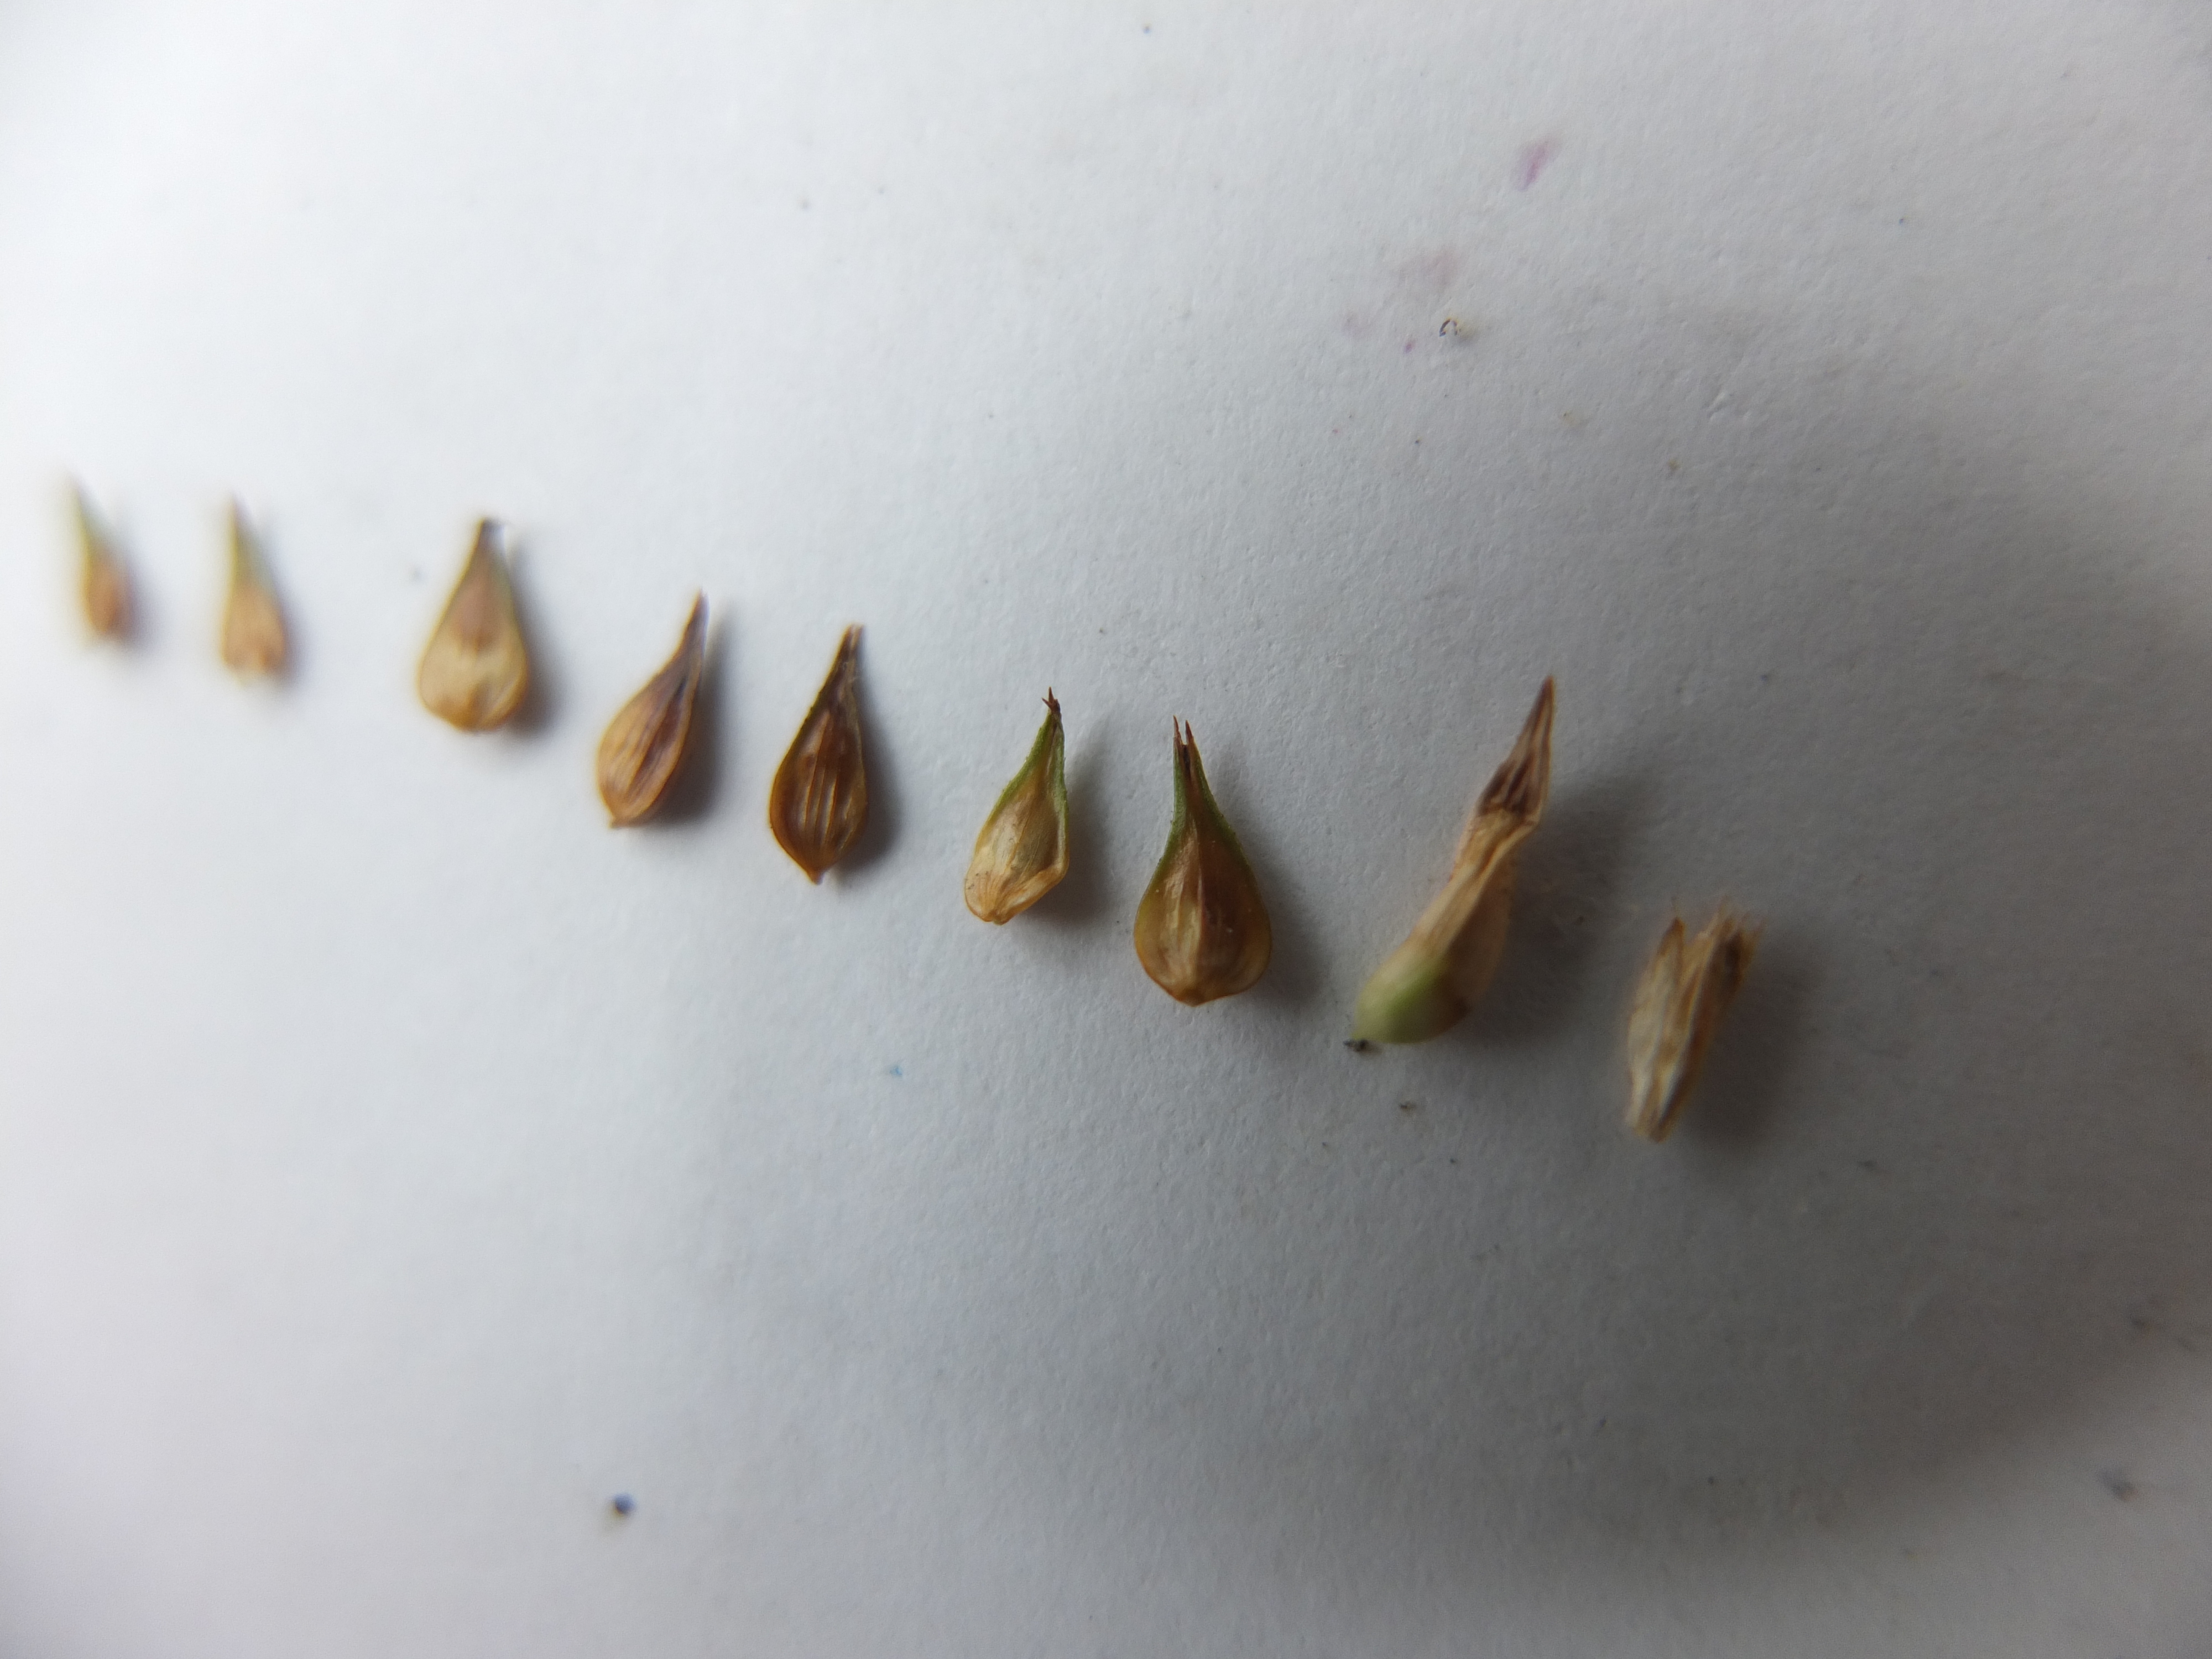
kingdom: Plantae
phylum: Tracheophyta
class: Liliopsida
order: Poales
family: Cyperaceae
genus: Carex
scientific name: Carex otrubae
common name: Sylt-star
